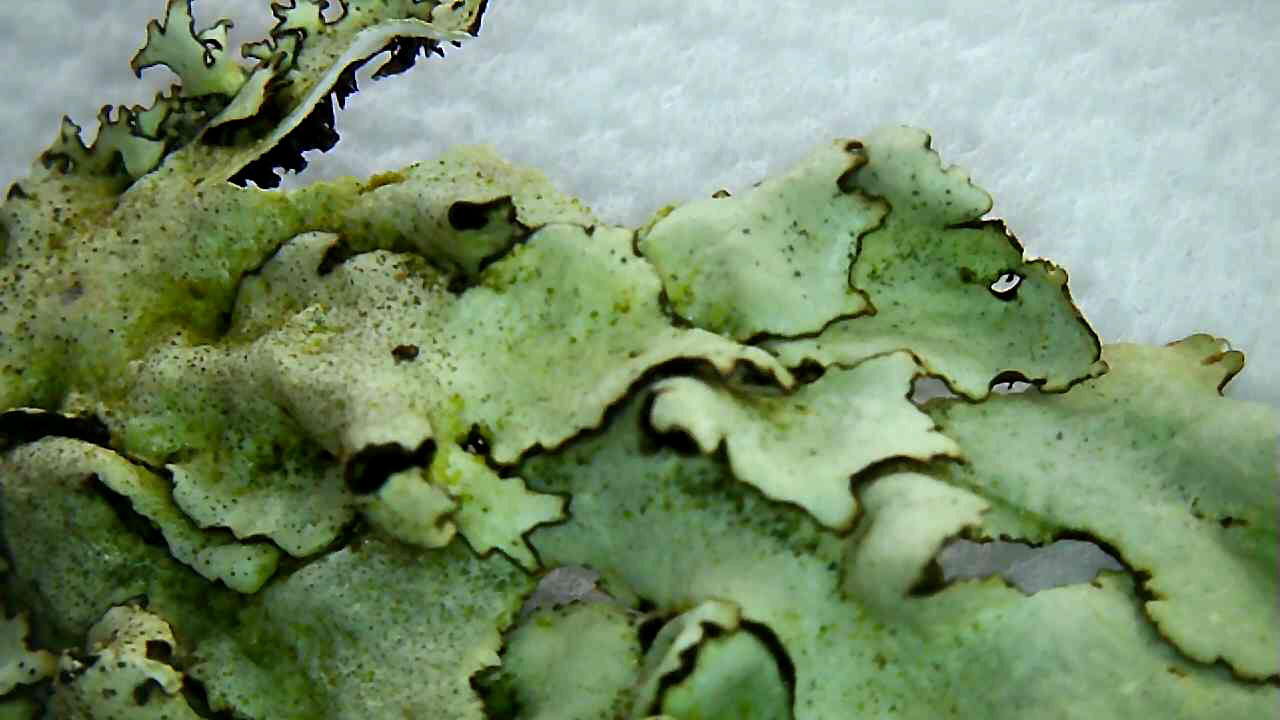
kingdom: Fungi
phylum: Ascomycota
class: Lecanoromycetes
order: Lecanorales
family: Parmeliaceae
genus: Xanthoparmelia
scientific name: Xanthoparmelia conspersa
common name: messing-skållav
